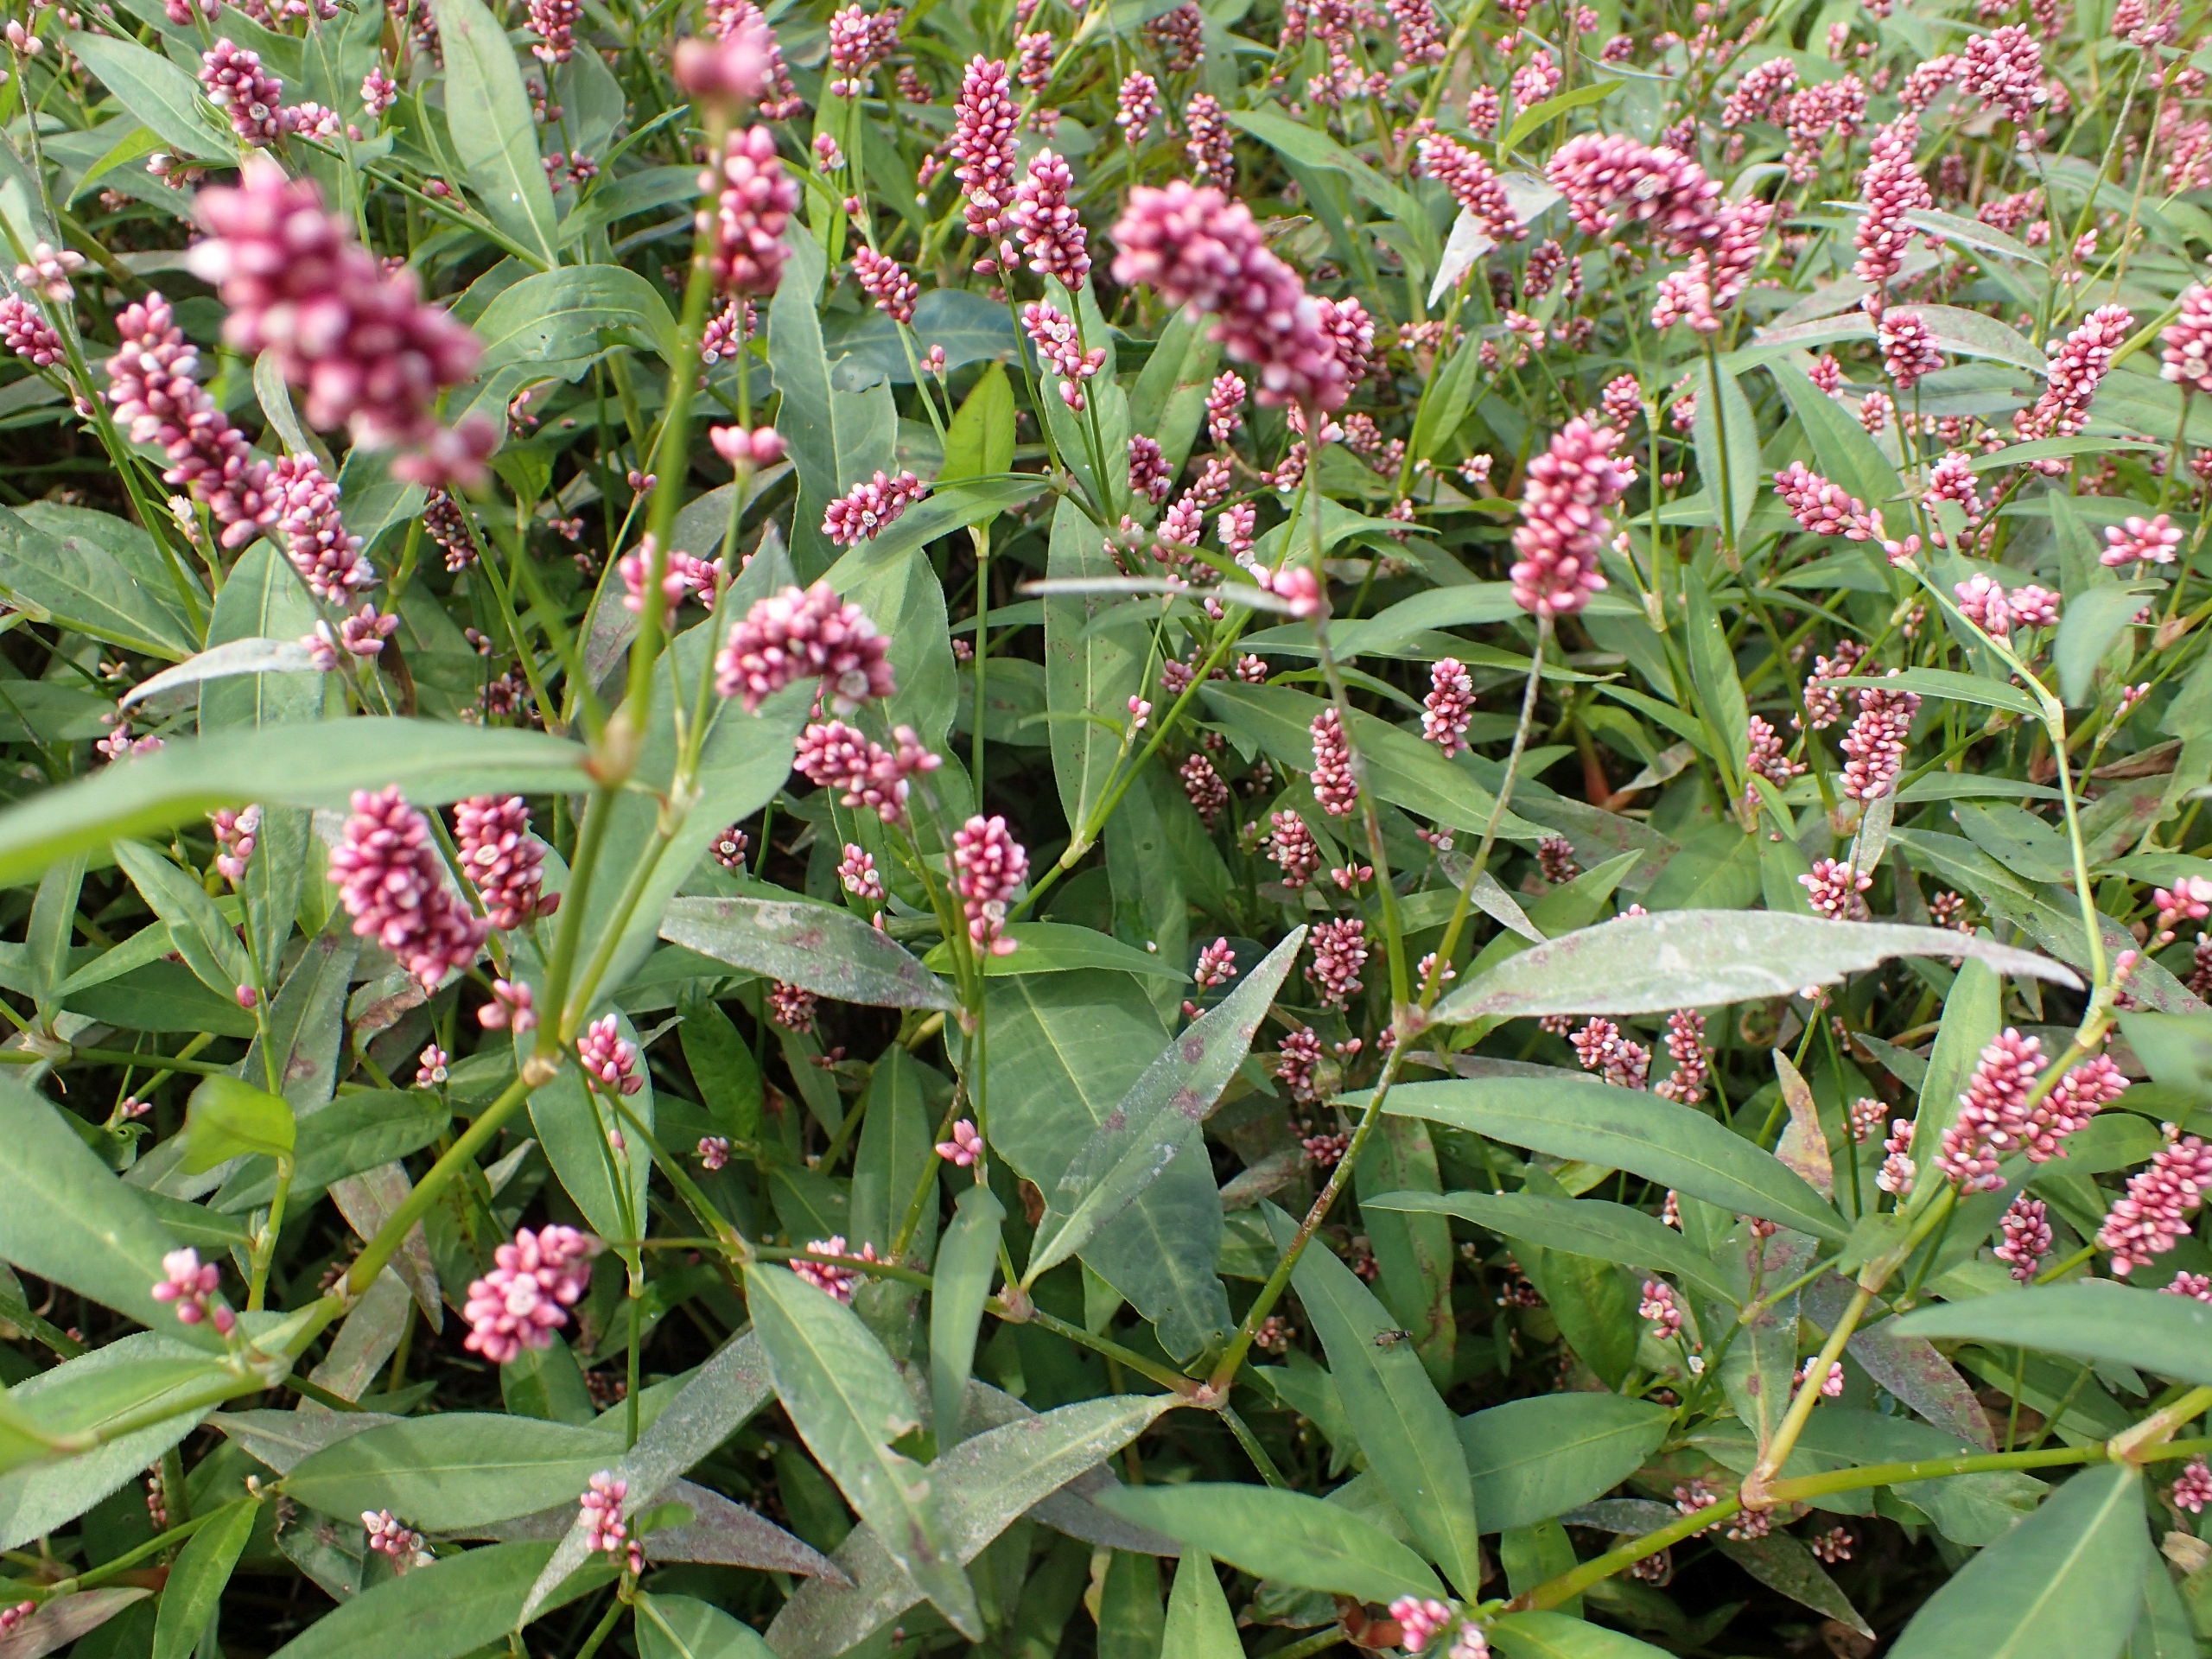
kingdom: Plantae
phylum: Tracheophyta
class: Magnoliopsida
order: Caryophyllales
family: Polygonaceae
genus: Persicaria
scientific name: Persicaria maculosa
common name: Fersken-pileurt
